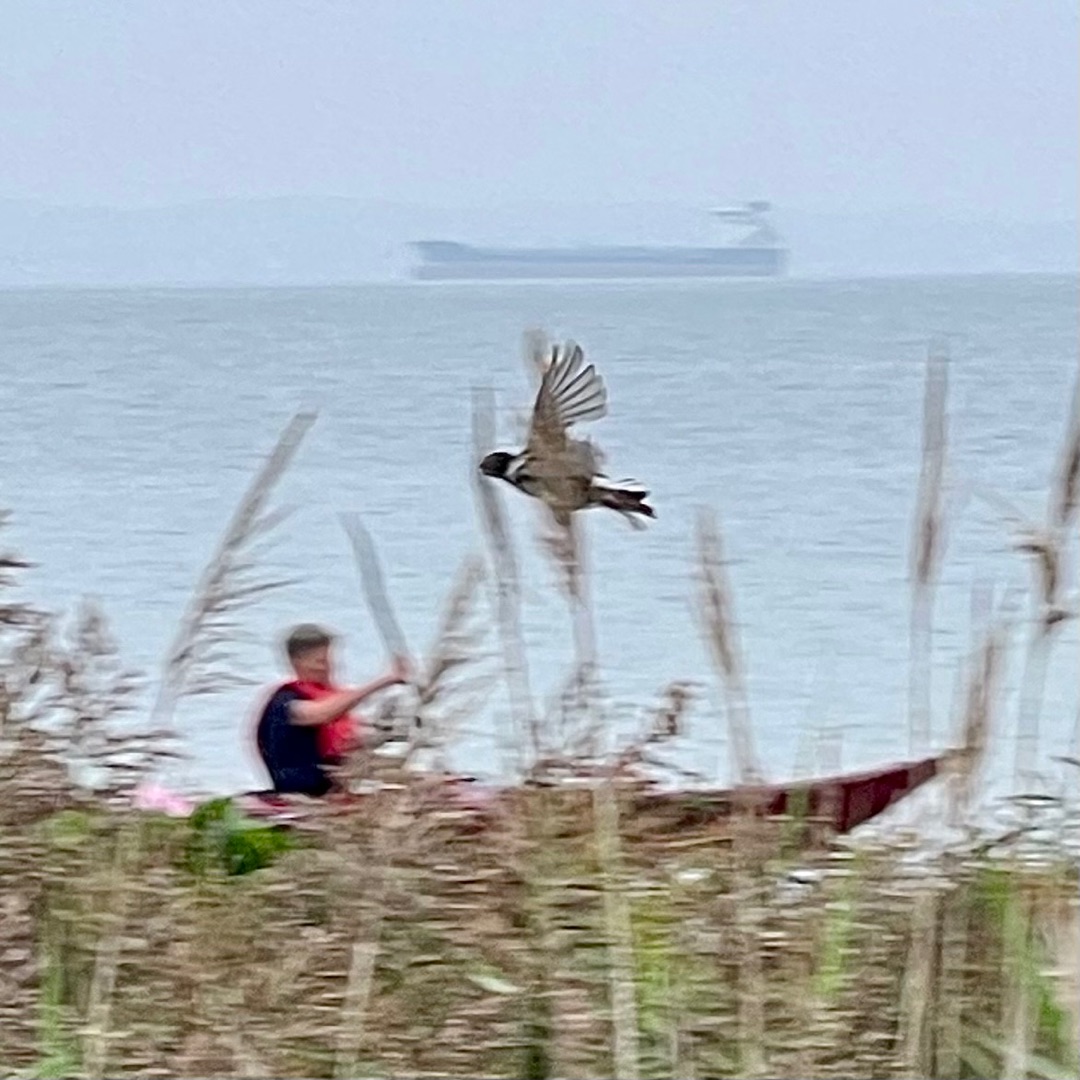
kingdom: Animalia
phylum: Chordata
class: Aves
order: Passeriformes
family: Emberizidae
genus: Emberiza
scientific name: Emberiza schoeniclus
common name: Rørspurv
